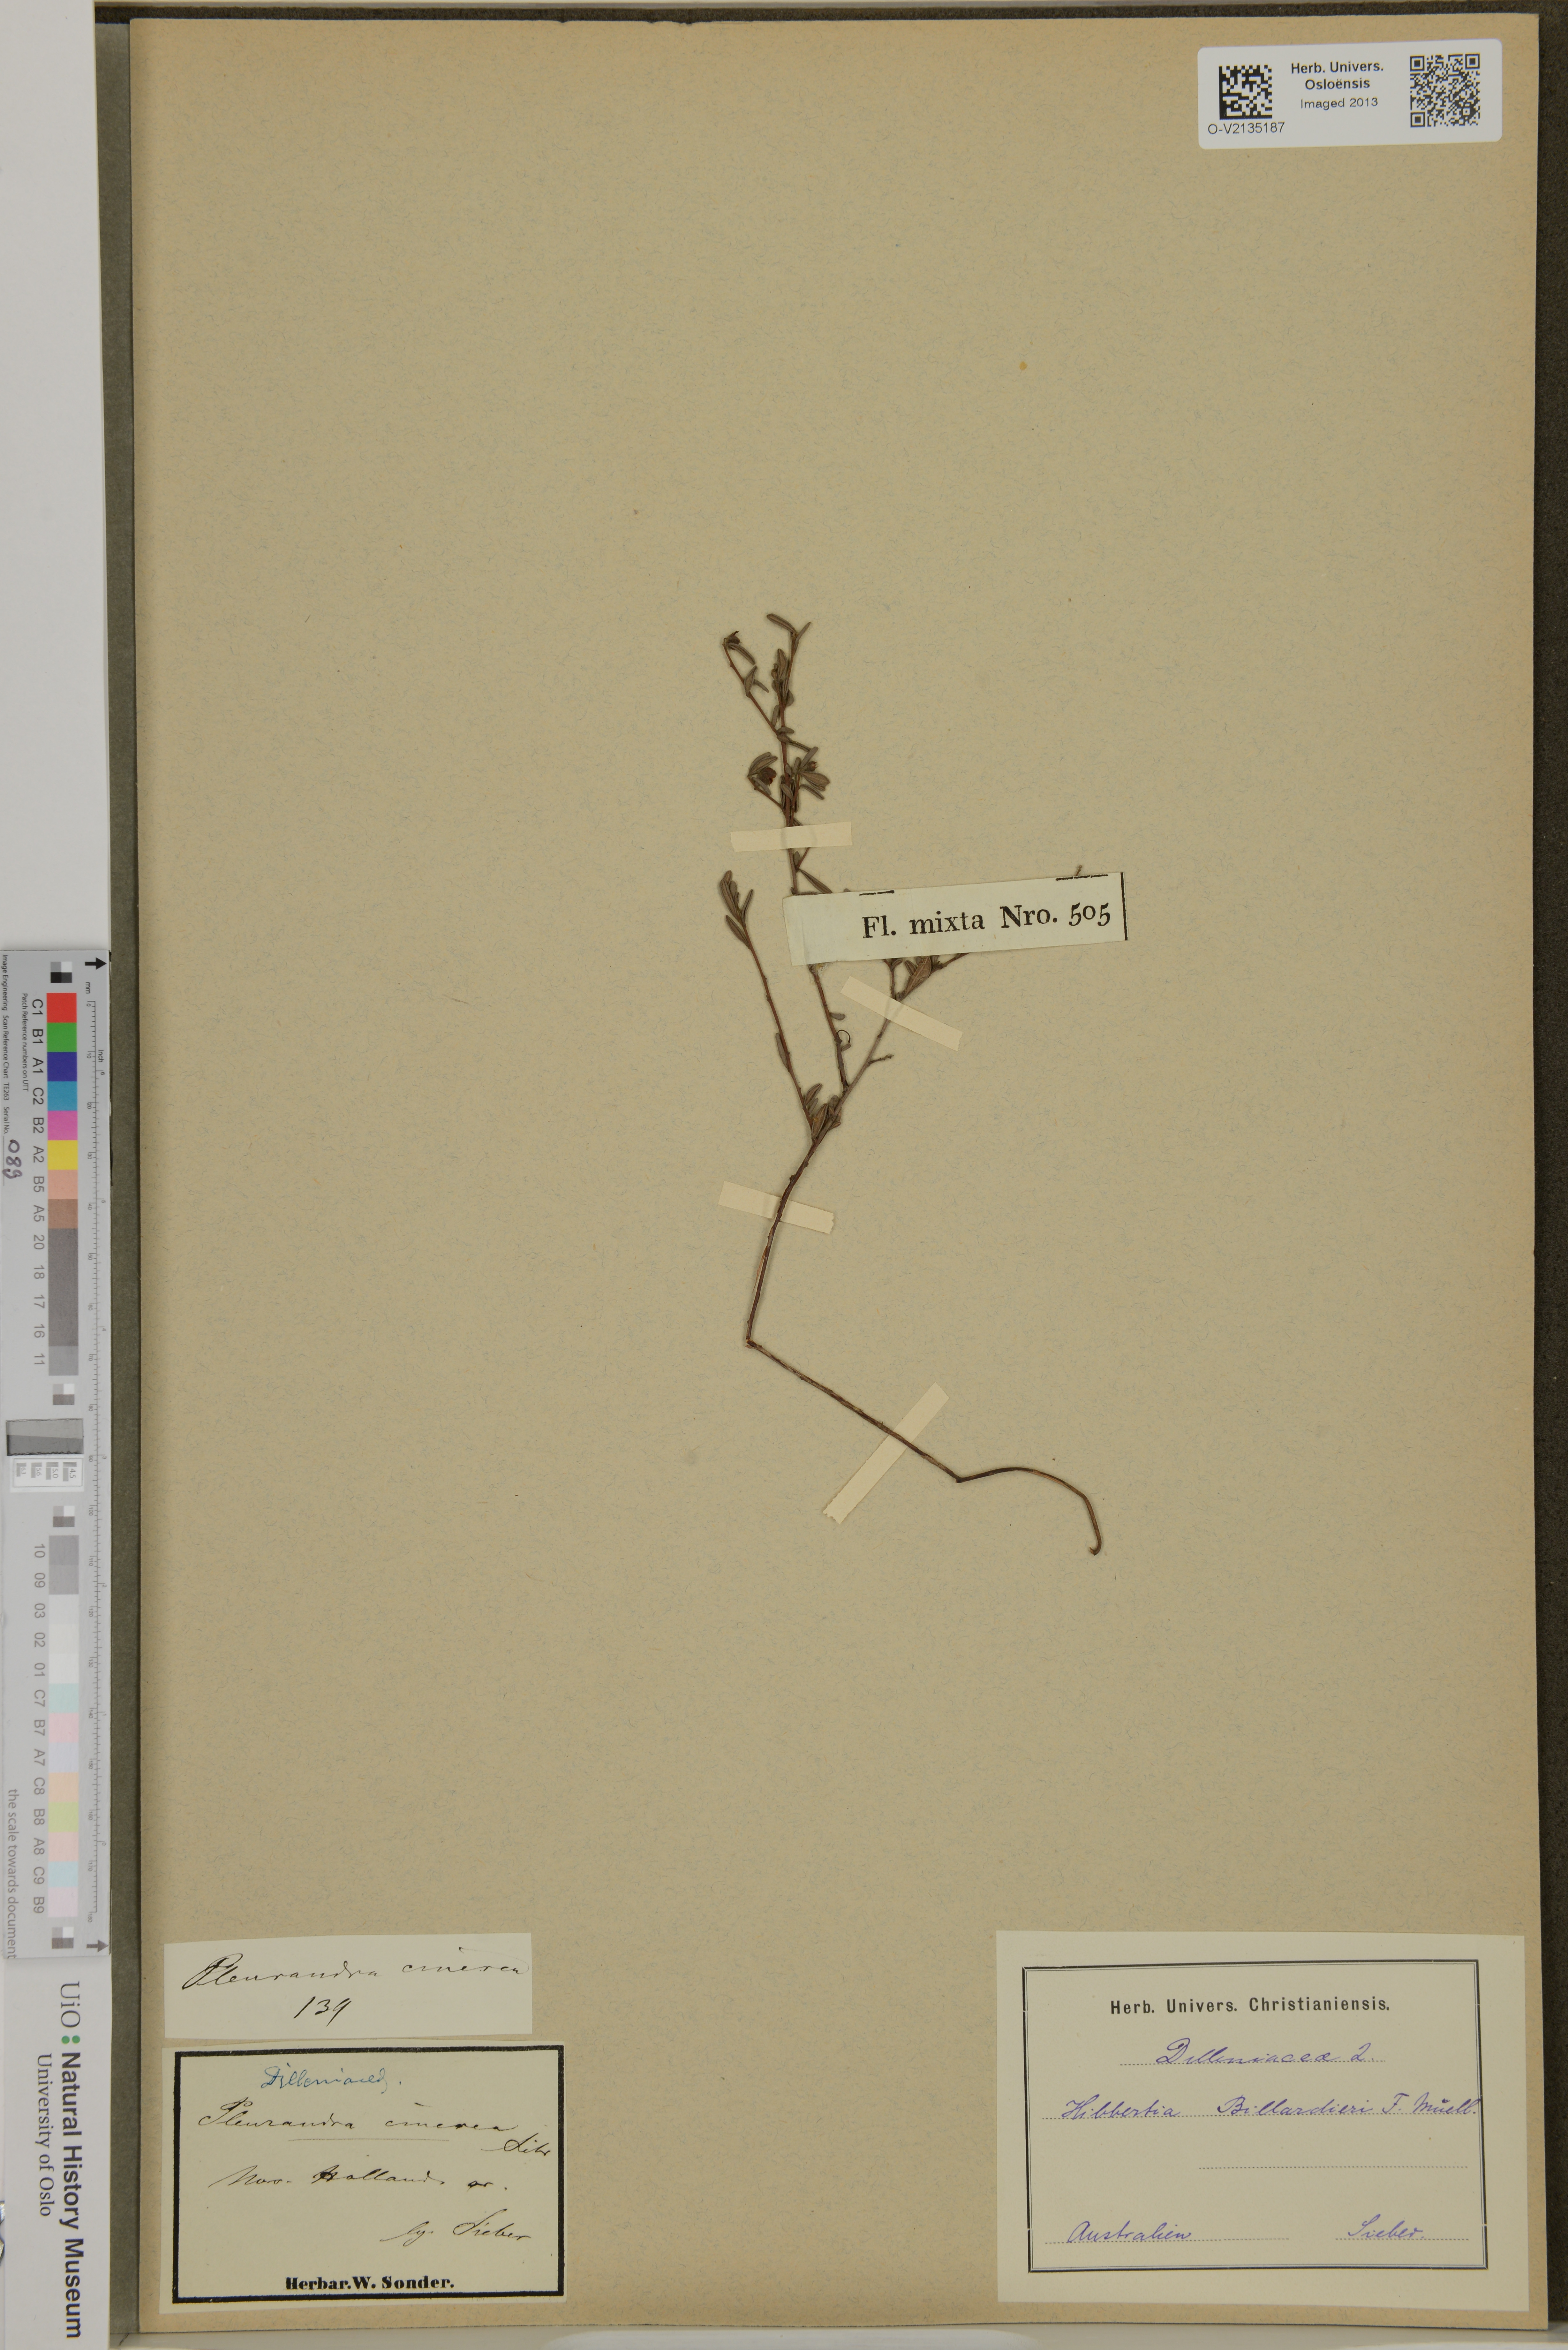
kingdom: Plantae
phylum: Tracheophyta
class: Magnoliopsida
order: Dilleniales
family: Dilleniaceae
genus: Hibbertia
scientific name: Hibbertia aspera
